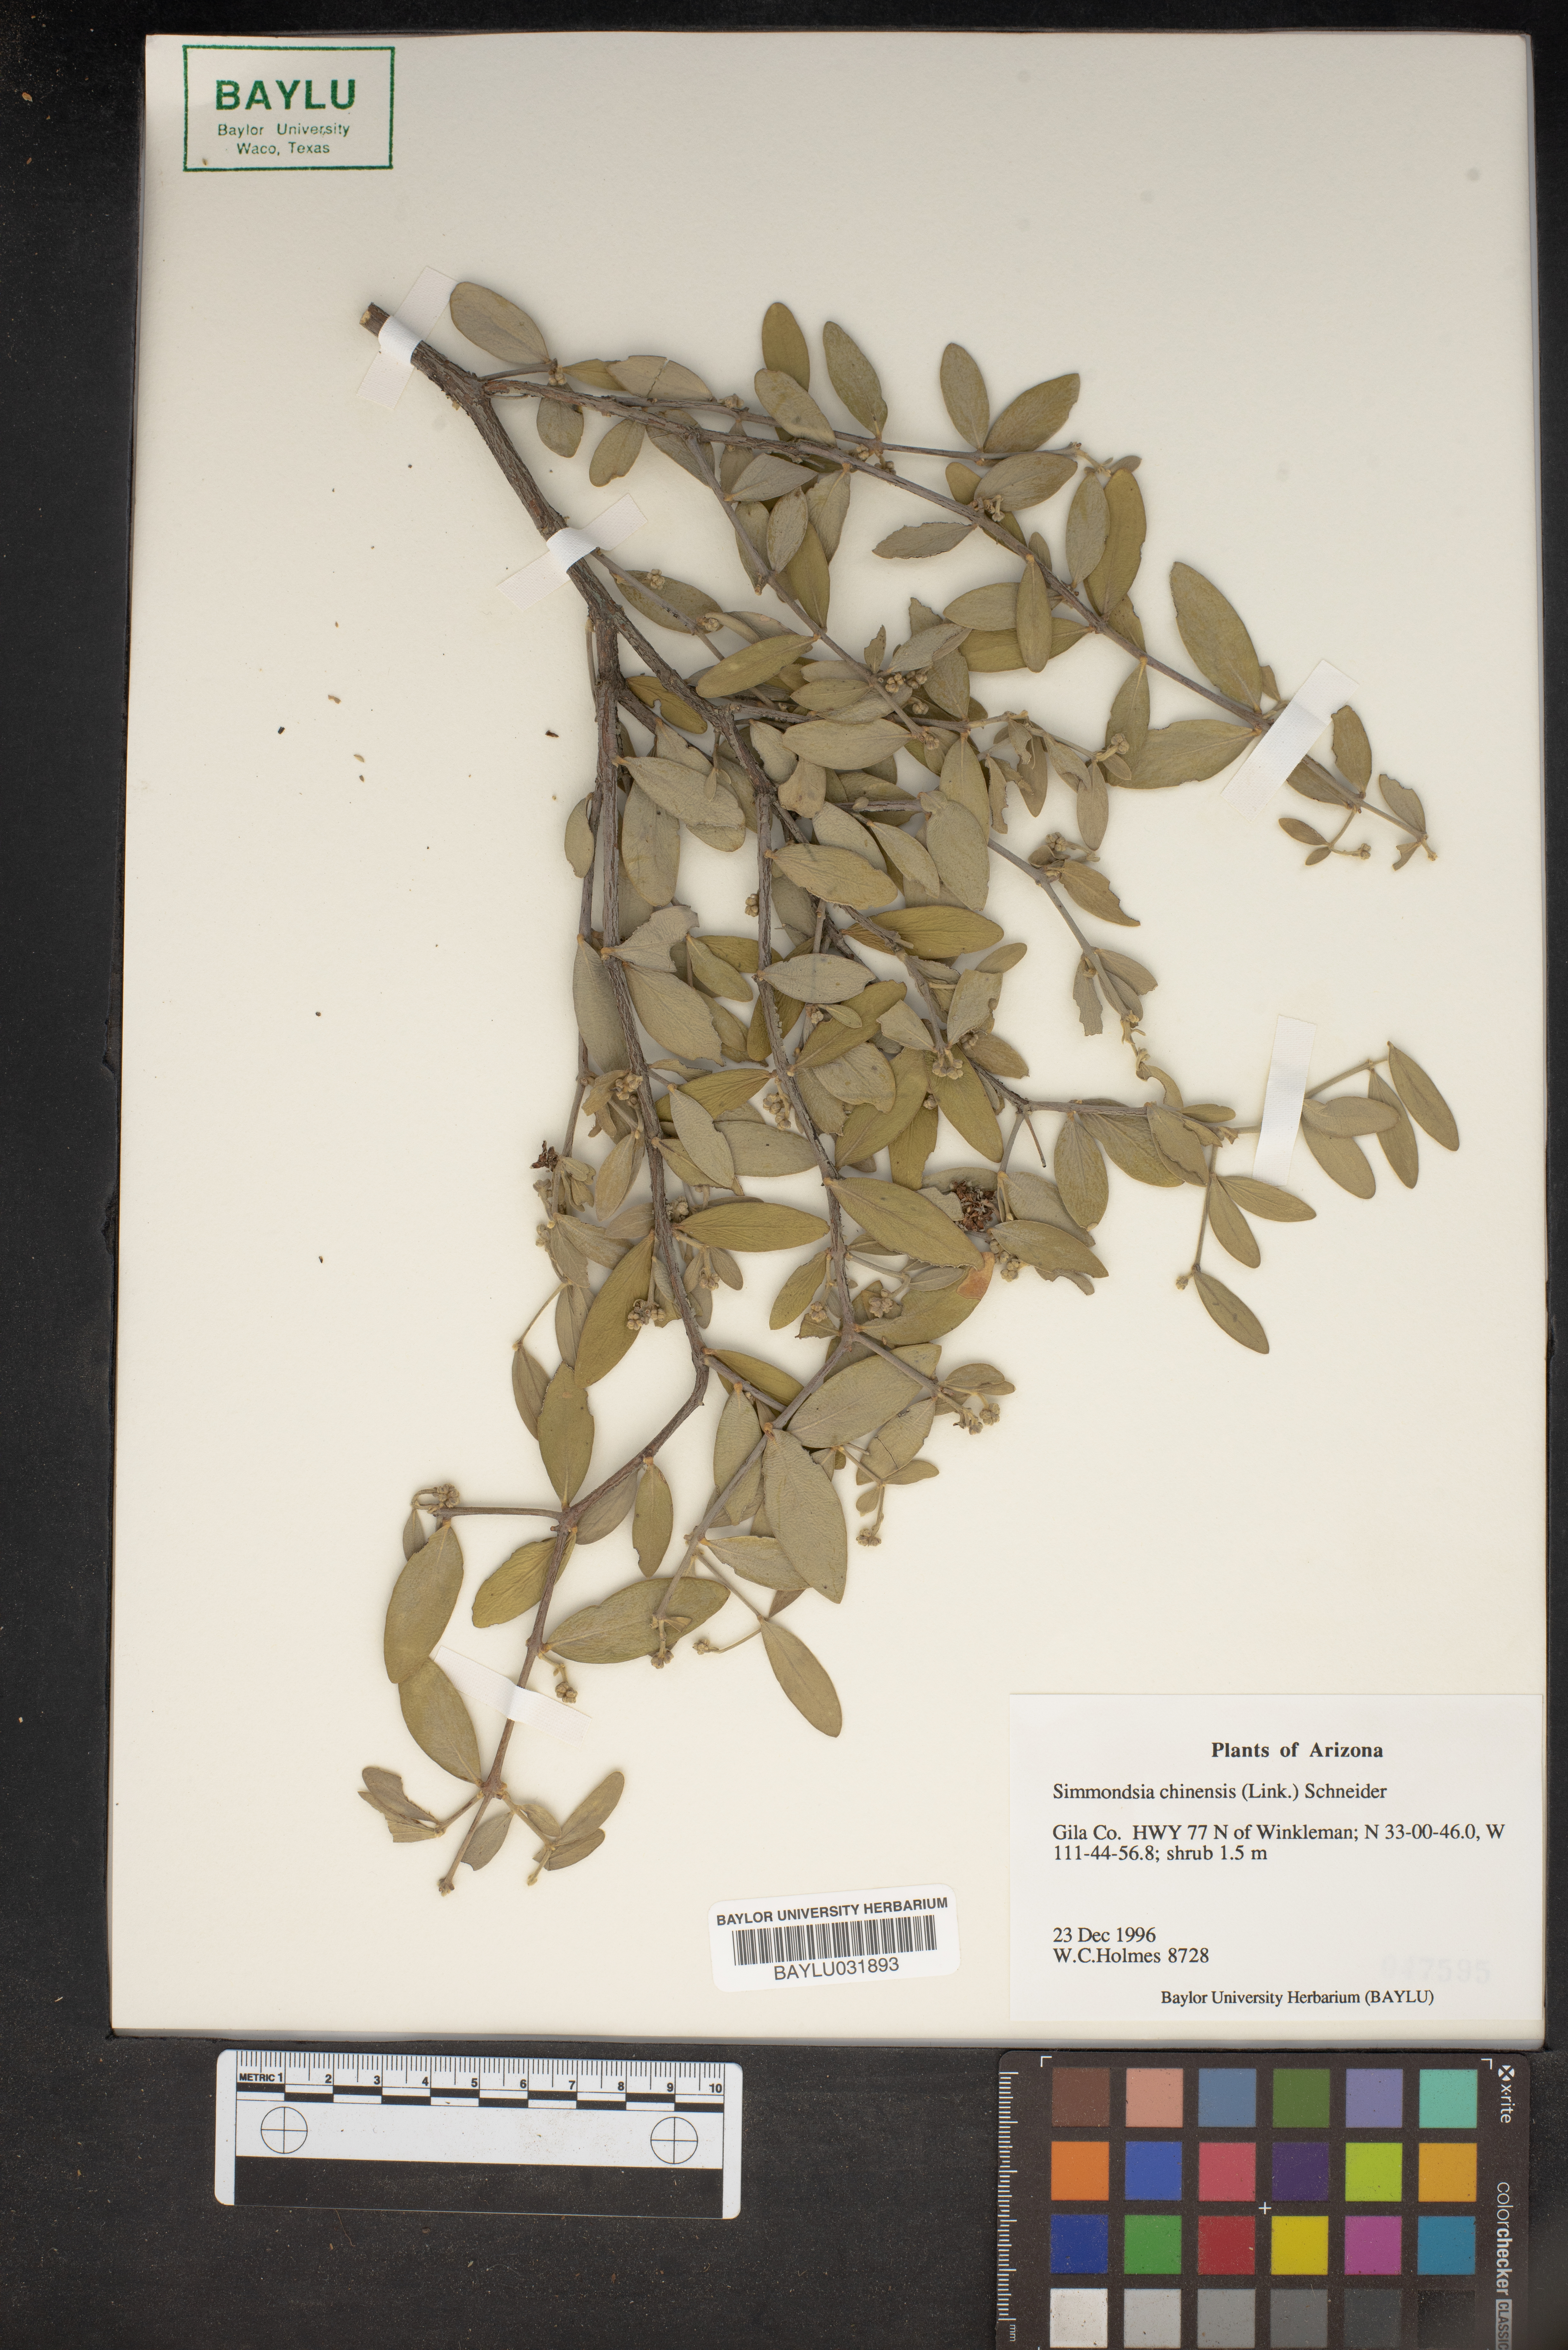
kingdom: Plantae
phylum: Tracheophyta
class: Magnoliopsida
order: Caryophyllales
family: Simmondsiaceae
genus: Simmondsia
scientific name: Simmondsia chinensis
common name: Jojoba
